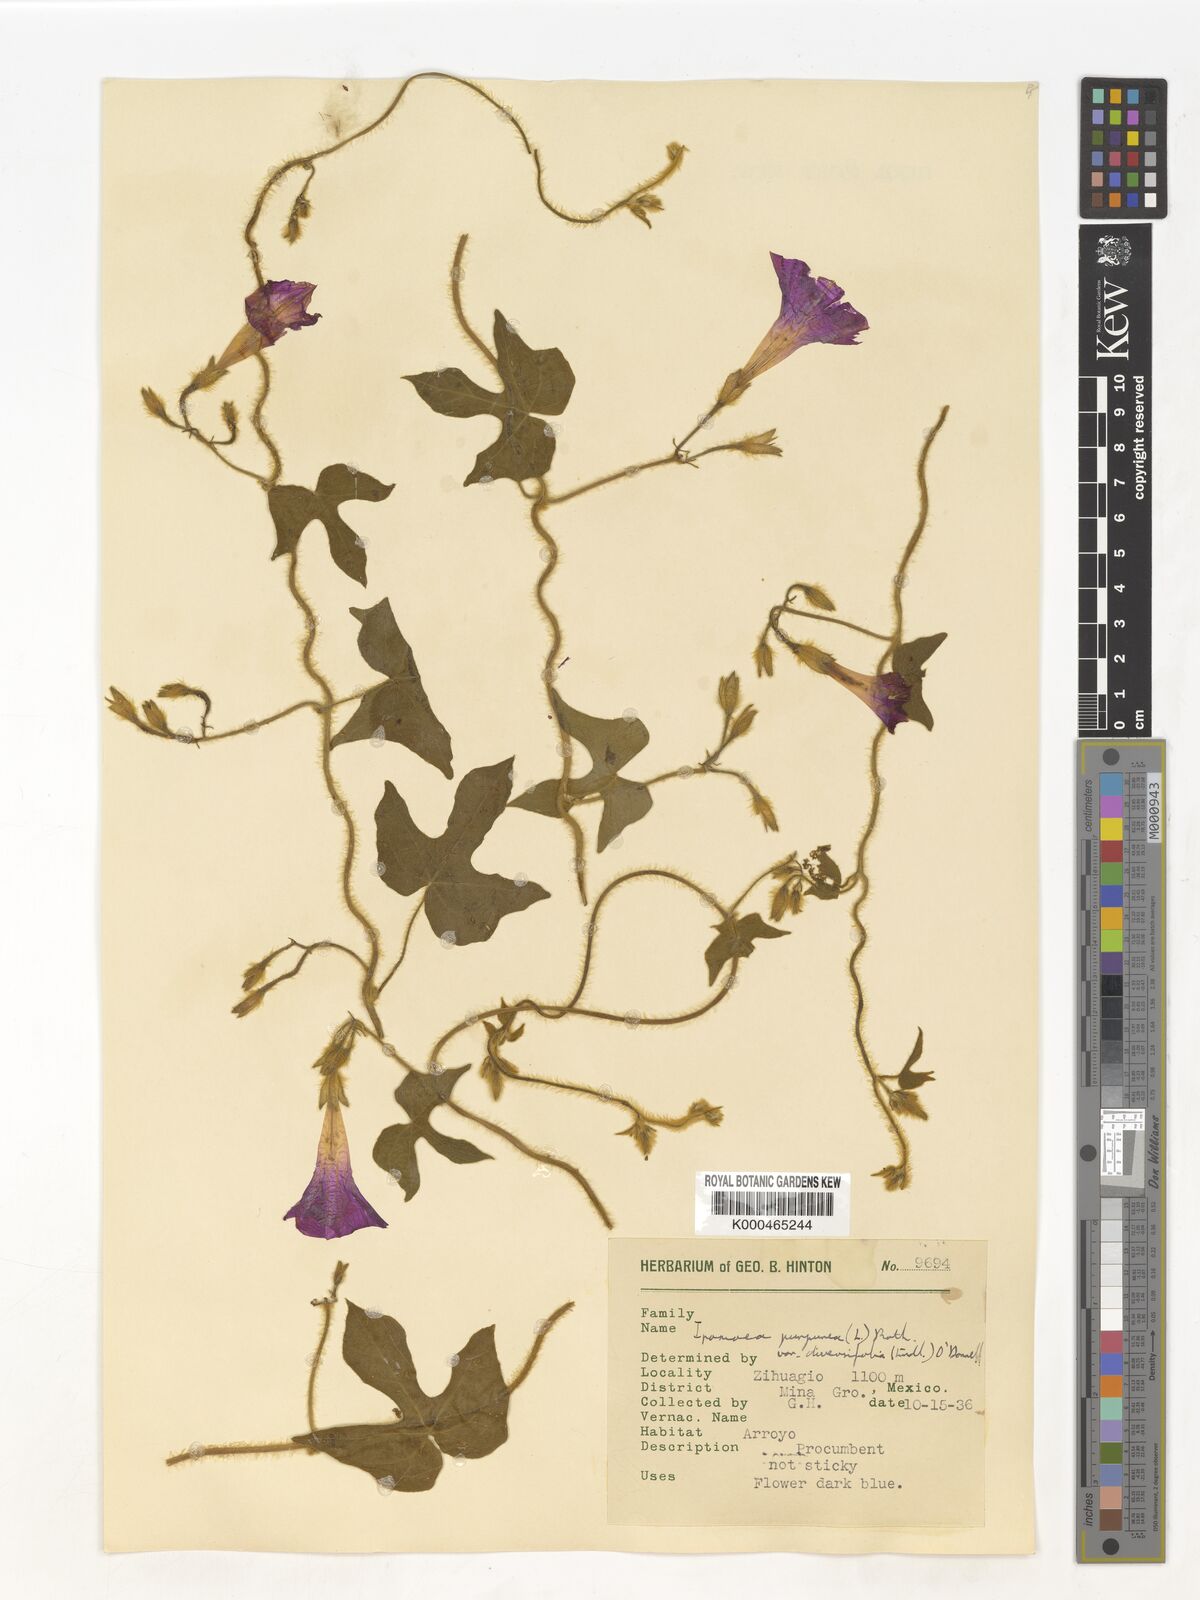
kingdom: Plantae
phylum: Tracheophyta
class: Magnoliopsida
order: Solanales
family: Convolvulaceae
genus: Ipomoea
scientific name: Ipomoea purpurea
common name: Common morning-glory
